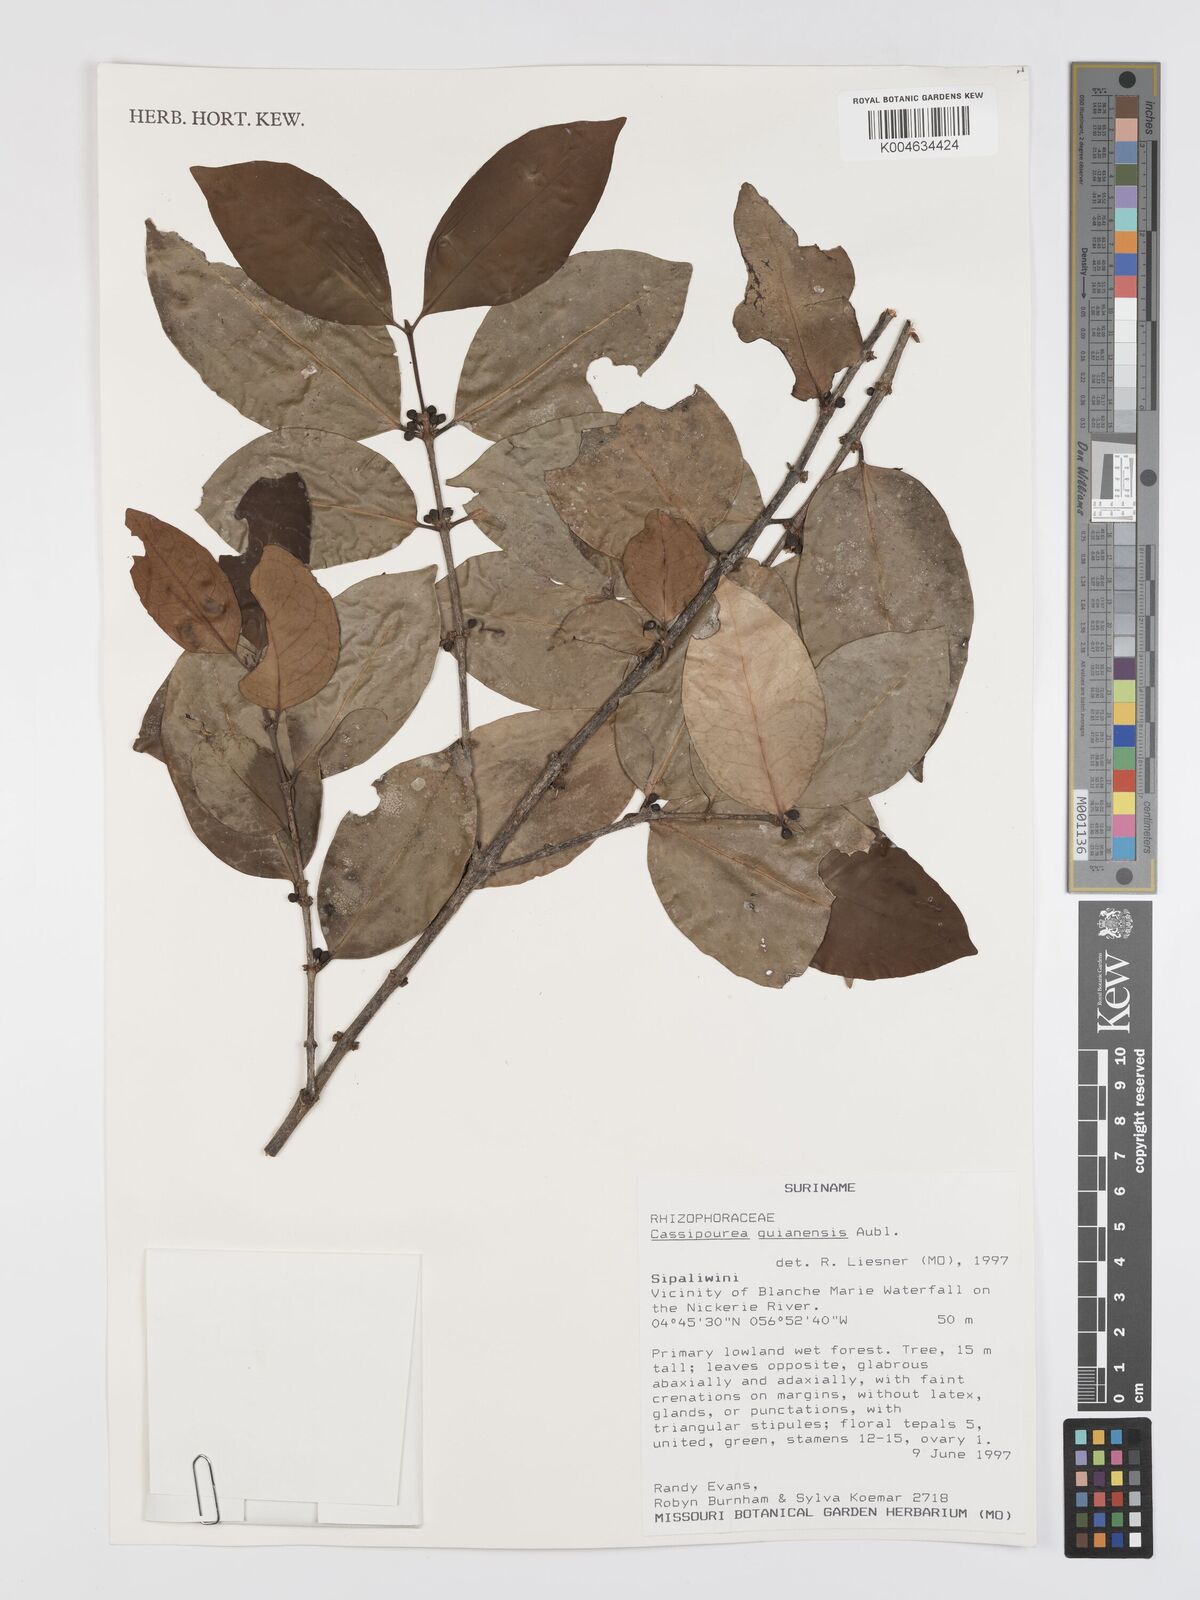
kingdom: Plantae
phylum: Tracheophyta
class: Magnoliopsida
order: Malpighiales
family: Rhizophoraceae
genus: Cassipourea
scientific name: Cassipourea guianensis
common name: Bastard waterwood
